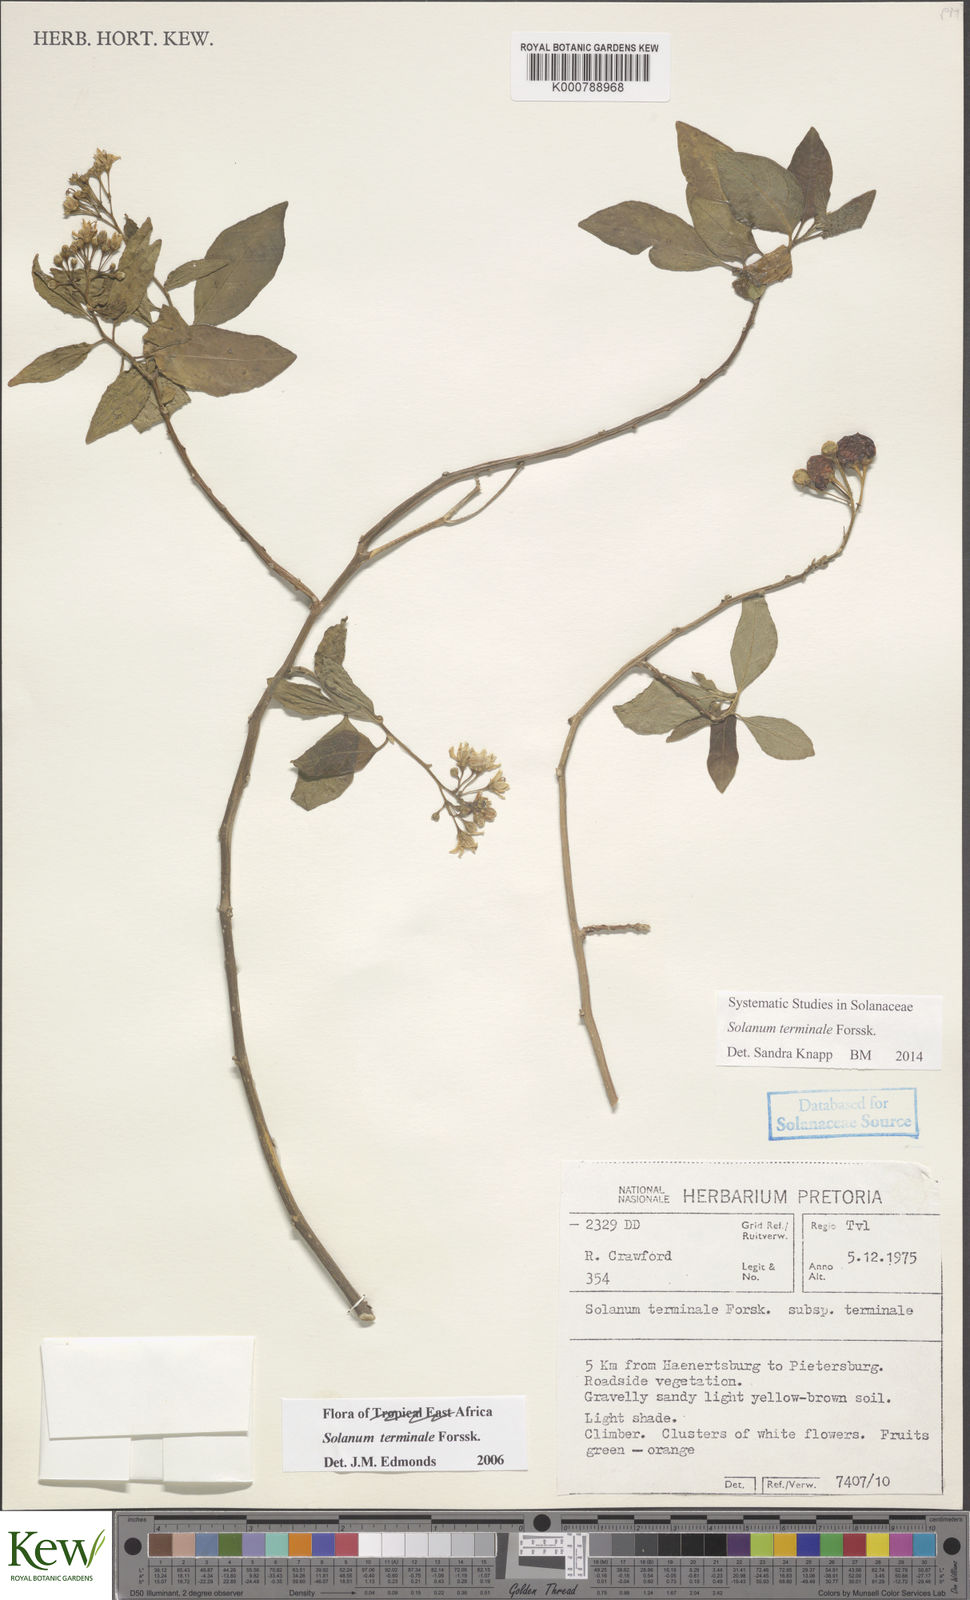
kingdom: Plantae
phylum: Tracheophyta
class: Magnoliopsida
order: Solanales
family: Solanaceae
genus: Solanum
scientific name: Solanum terminale
